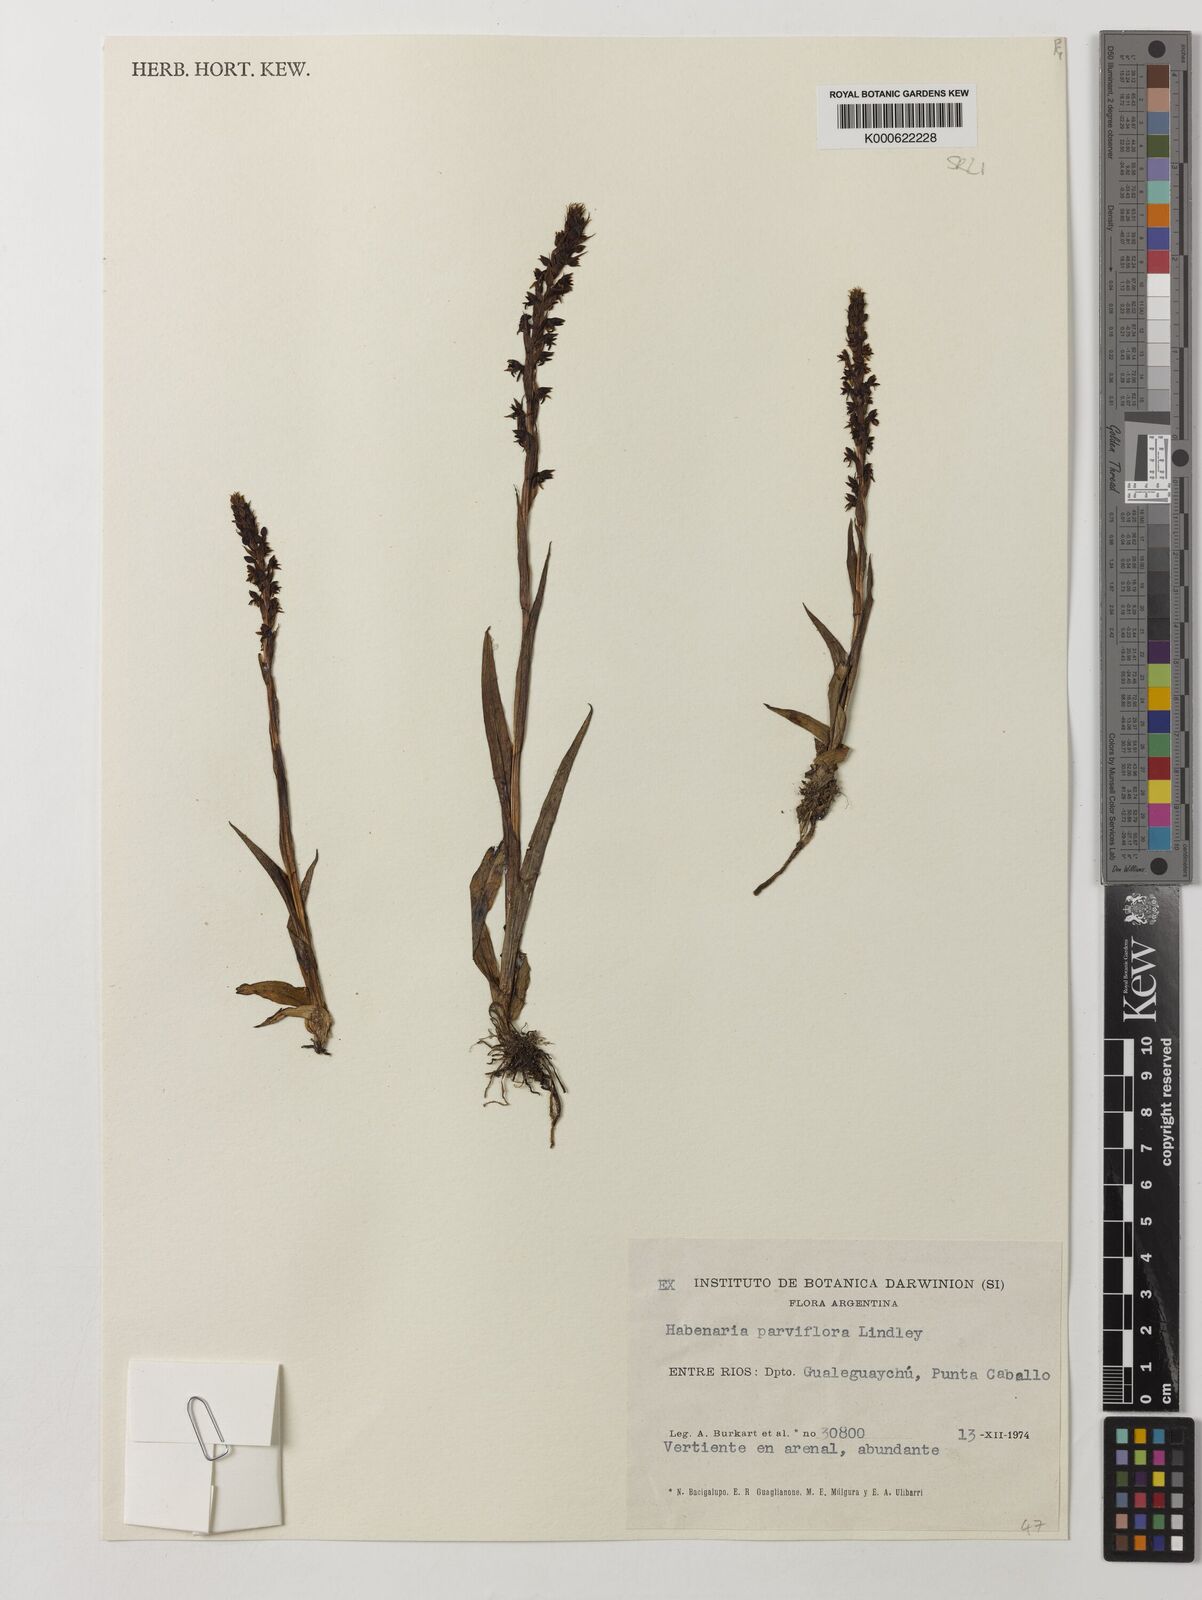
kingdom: Plantae
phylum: Tracheophyta
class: Liliopsida
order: Asparagales
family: Orchidaceae
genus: Habenaria
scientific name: Habenaria parviflora
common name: Small flowered habenaria
